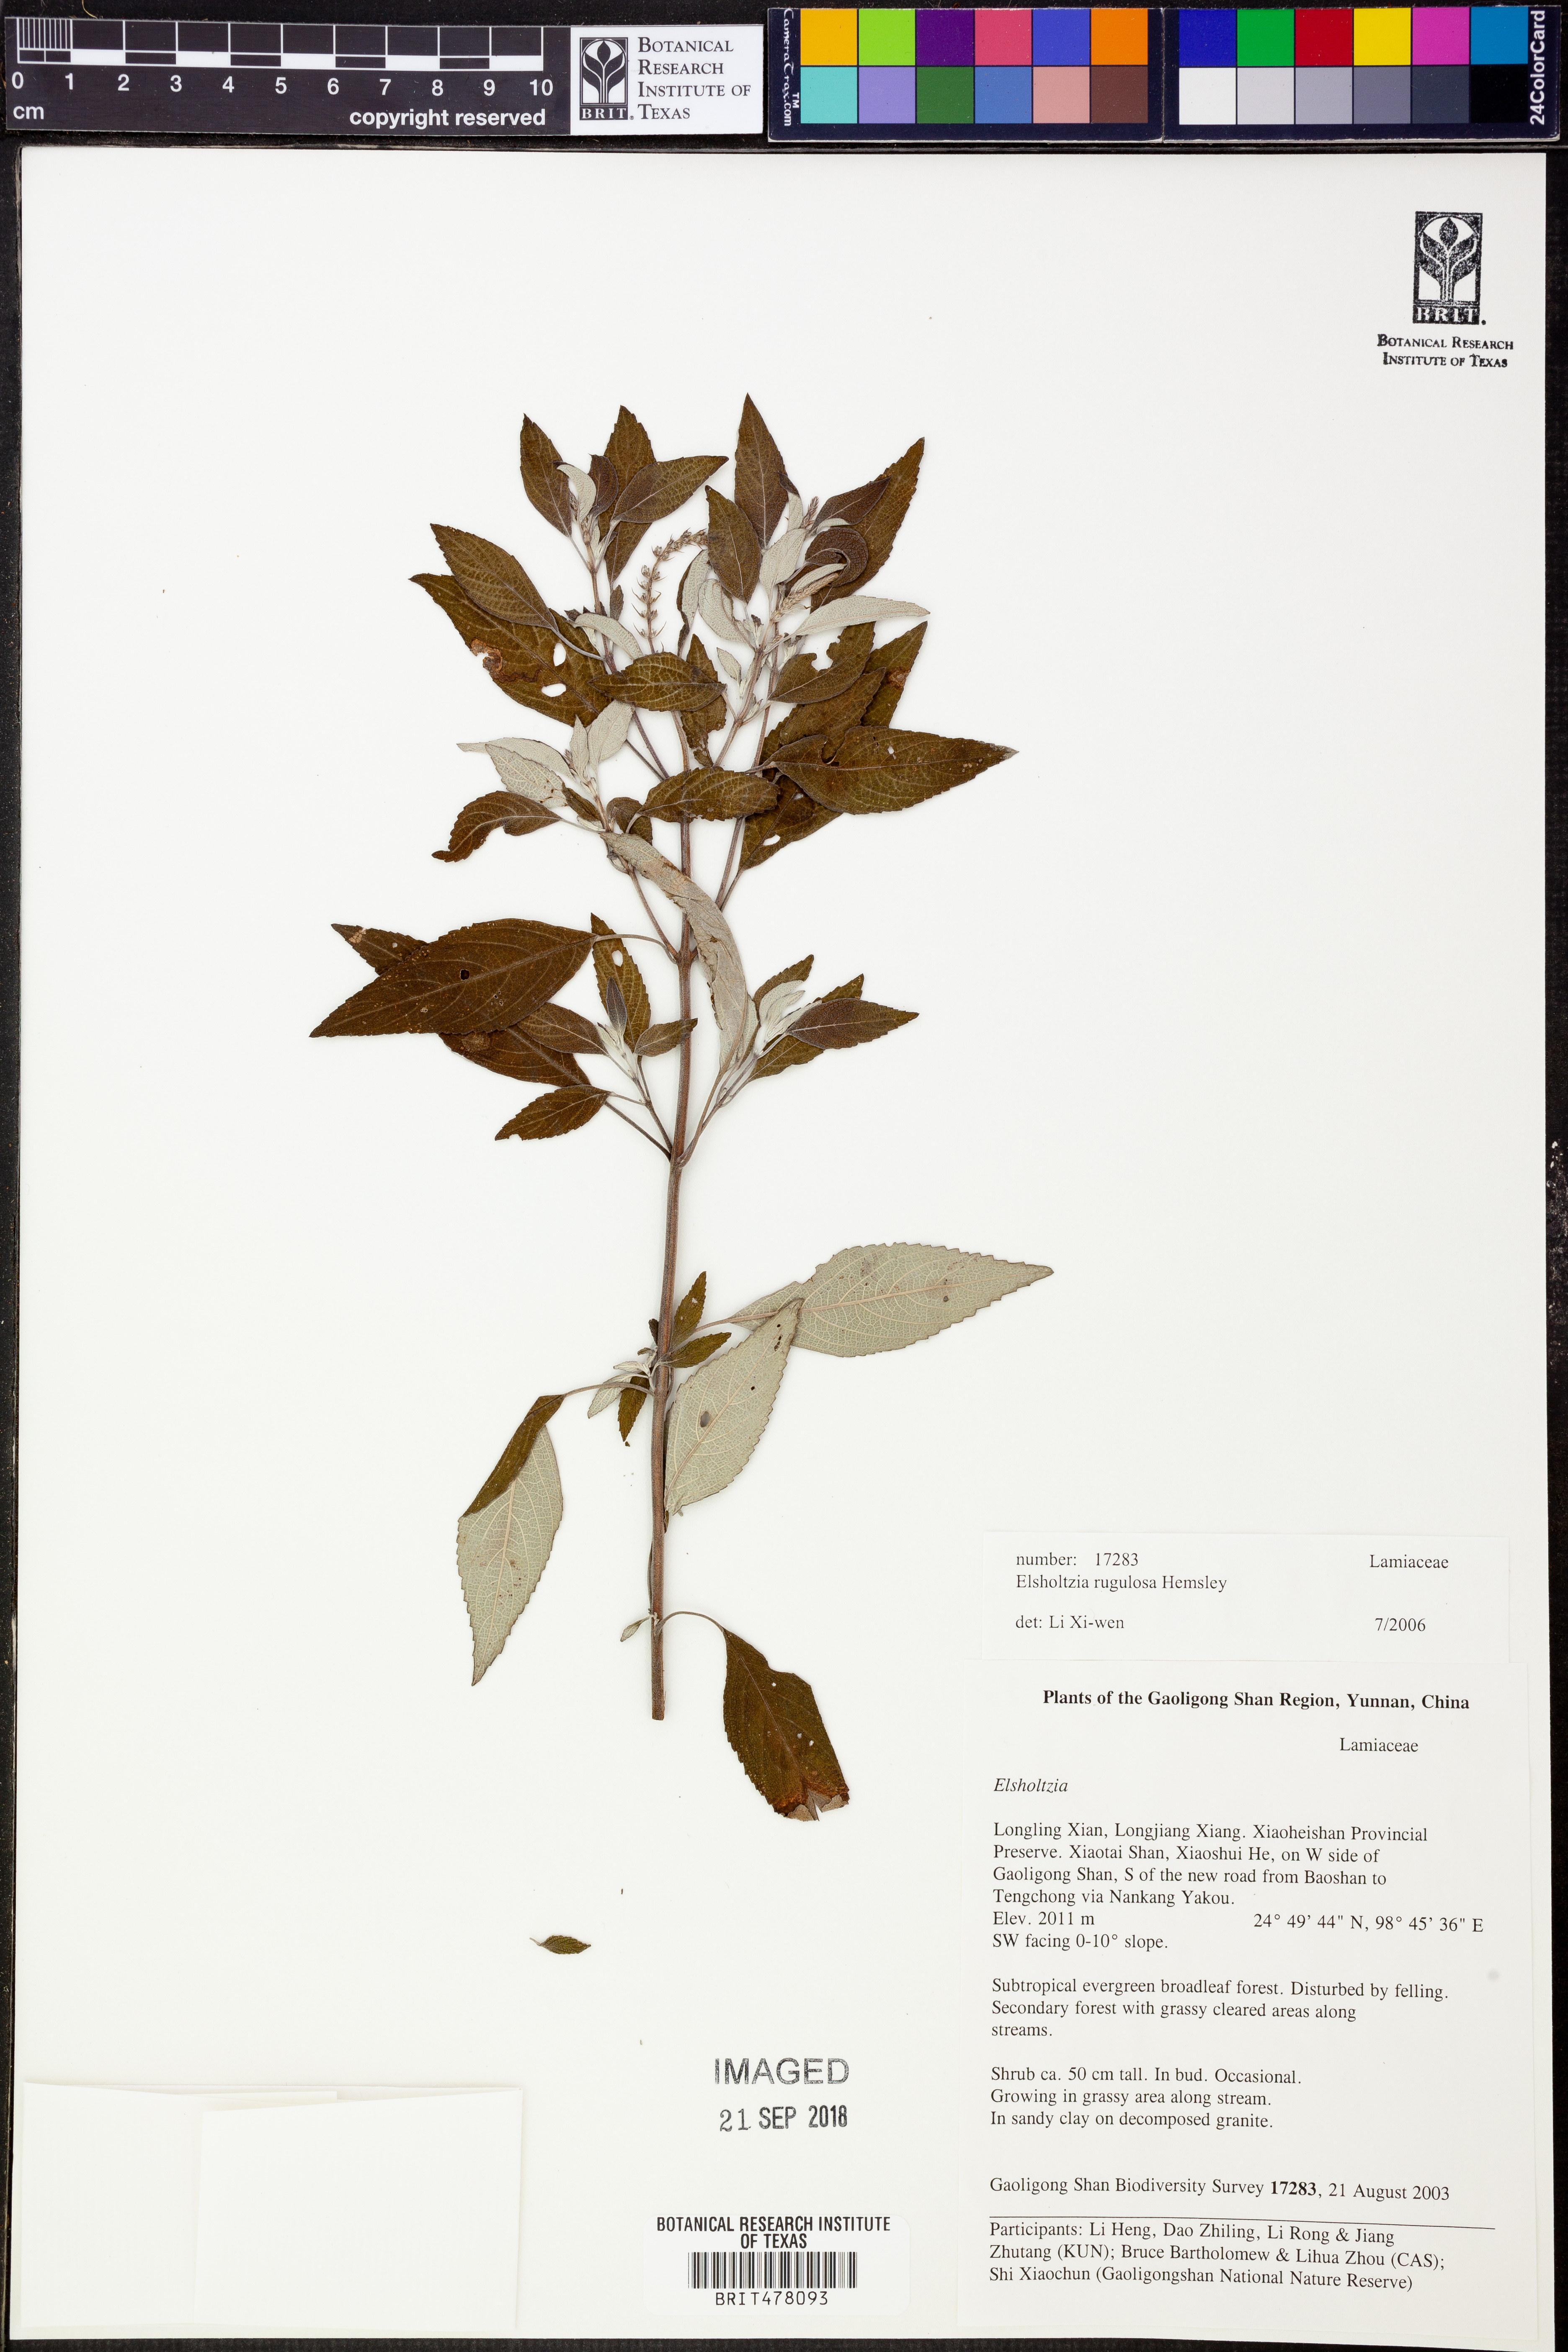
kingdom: Plantae
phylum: Tracheophyta
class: Magnoliopsida
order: Lamiales
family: Lamiaceae
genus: Elsholtzia
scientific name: Elsholtzia rugulosa
